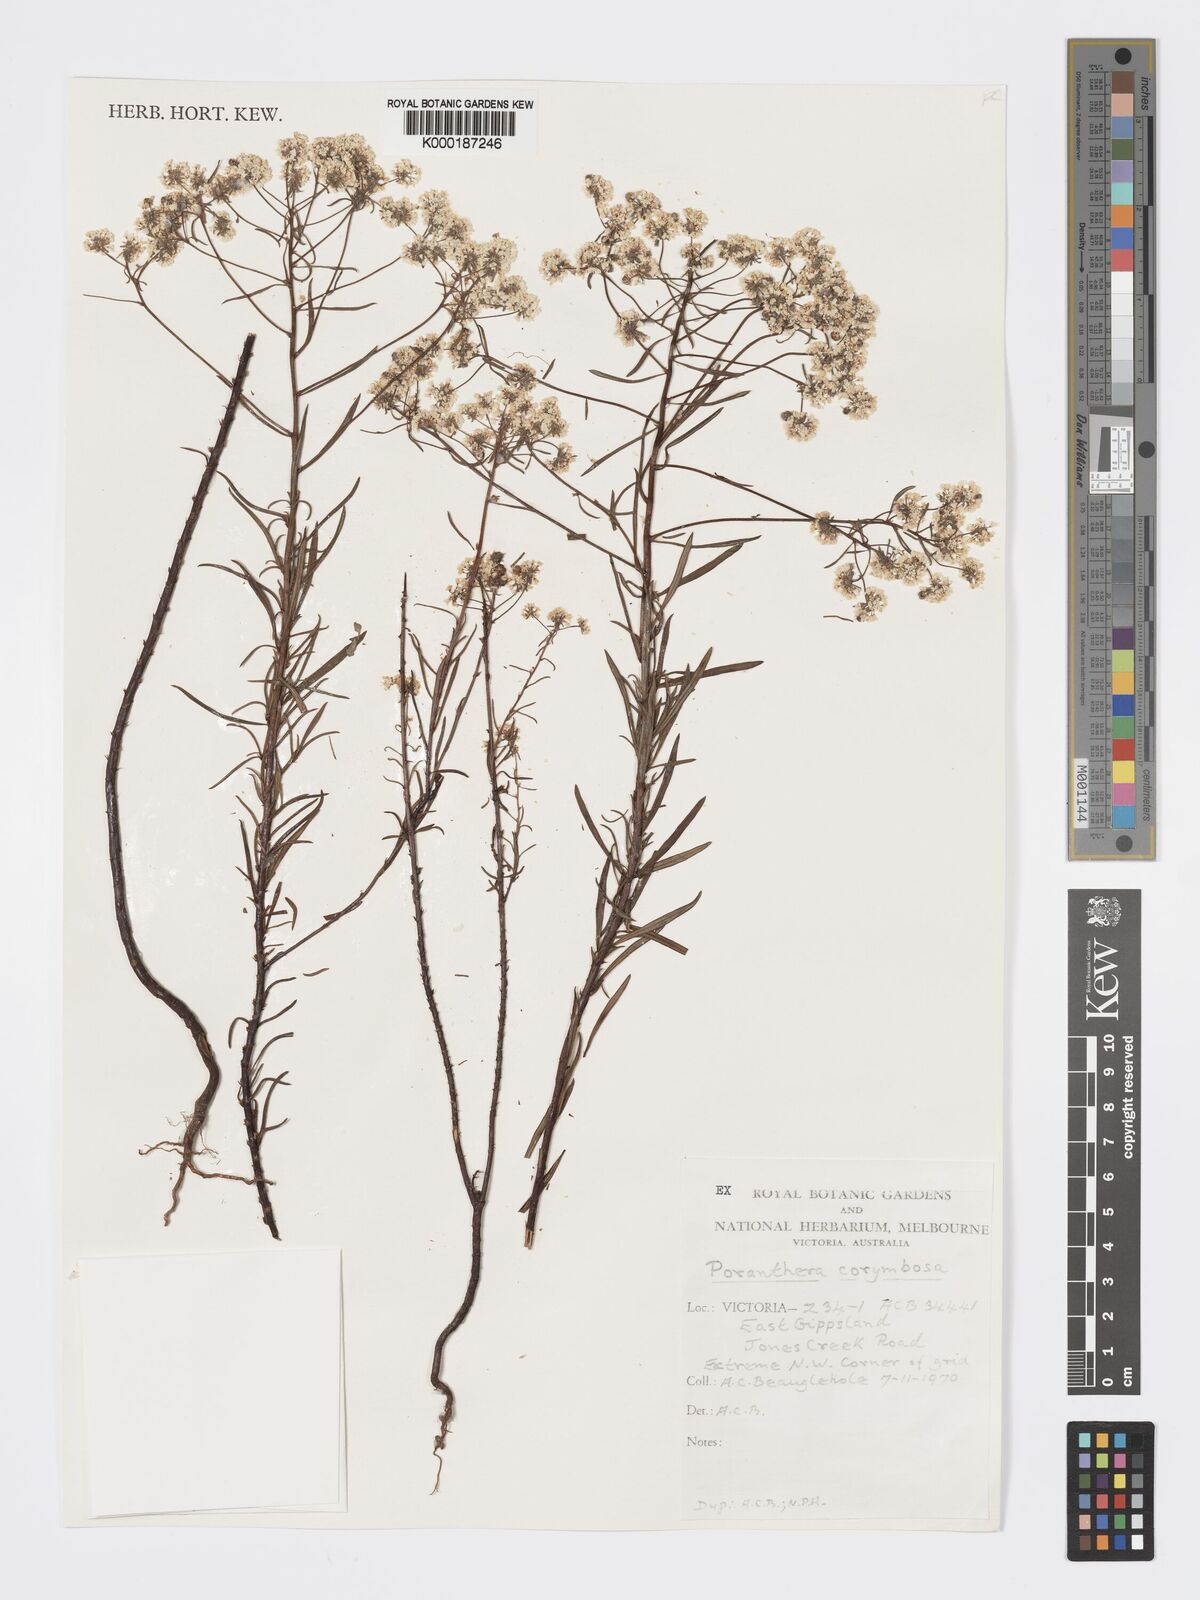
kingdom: Plantae
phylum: Tracheophyta
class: Magnoliopsida
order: Malpighiales
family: Phyllanthaceae
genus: Poranthera
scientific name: Poranthera corymbosa
